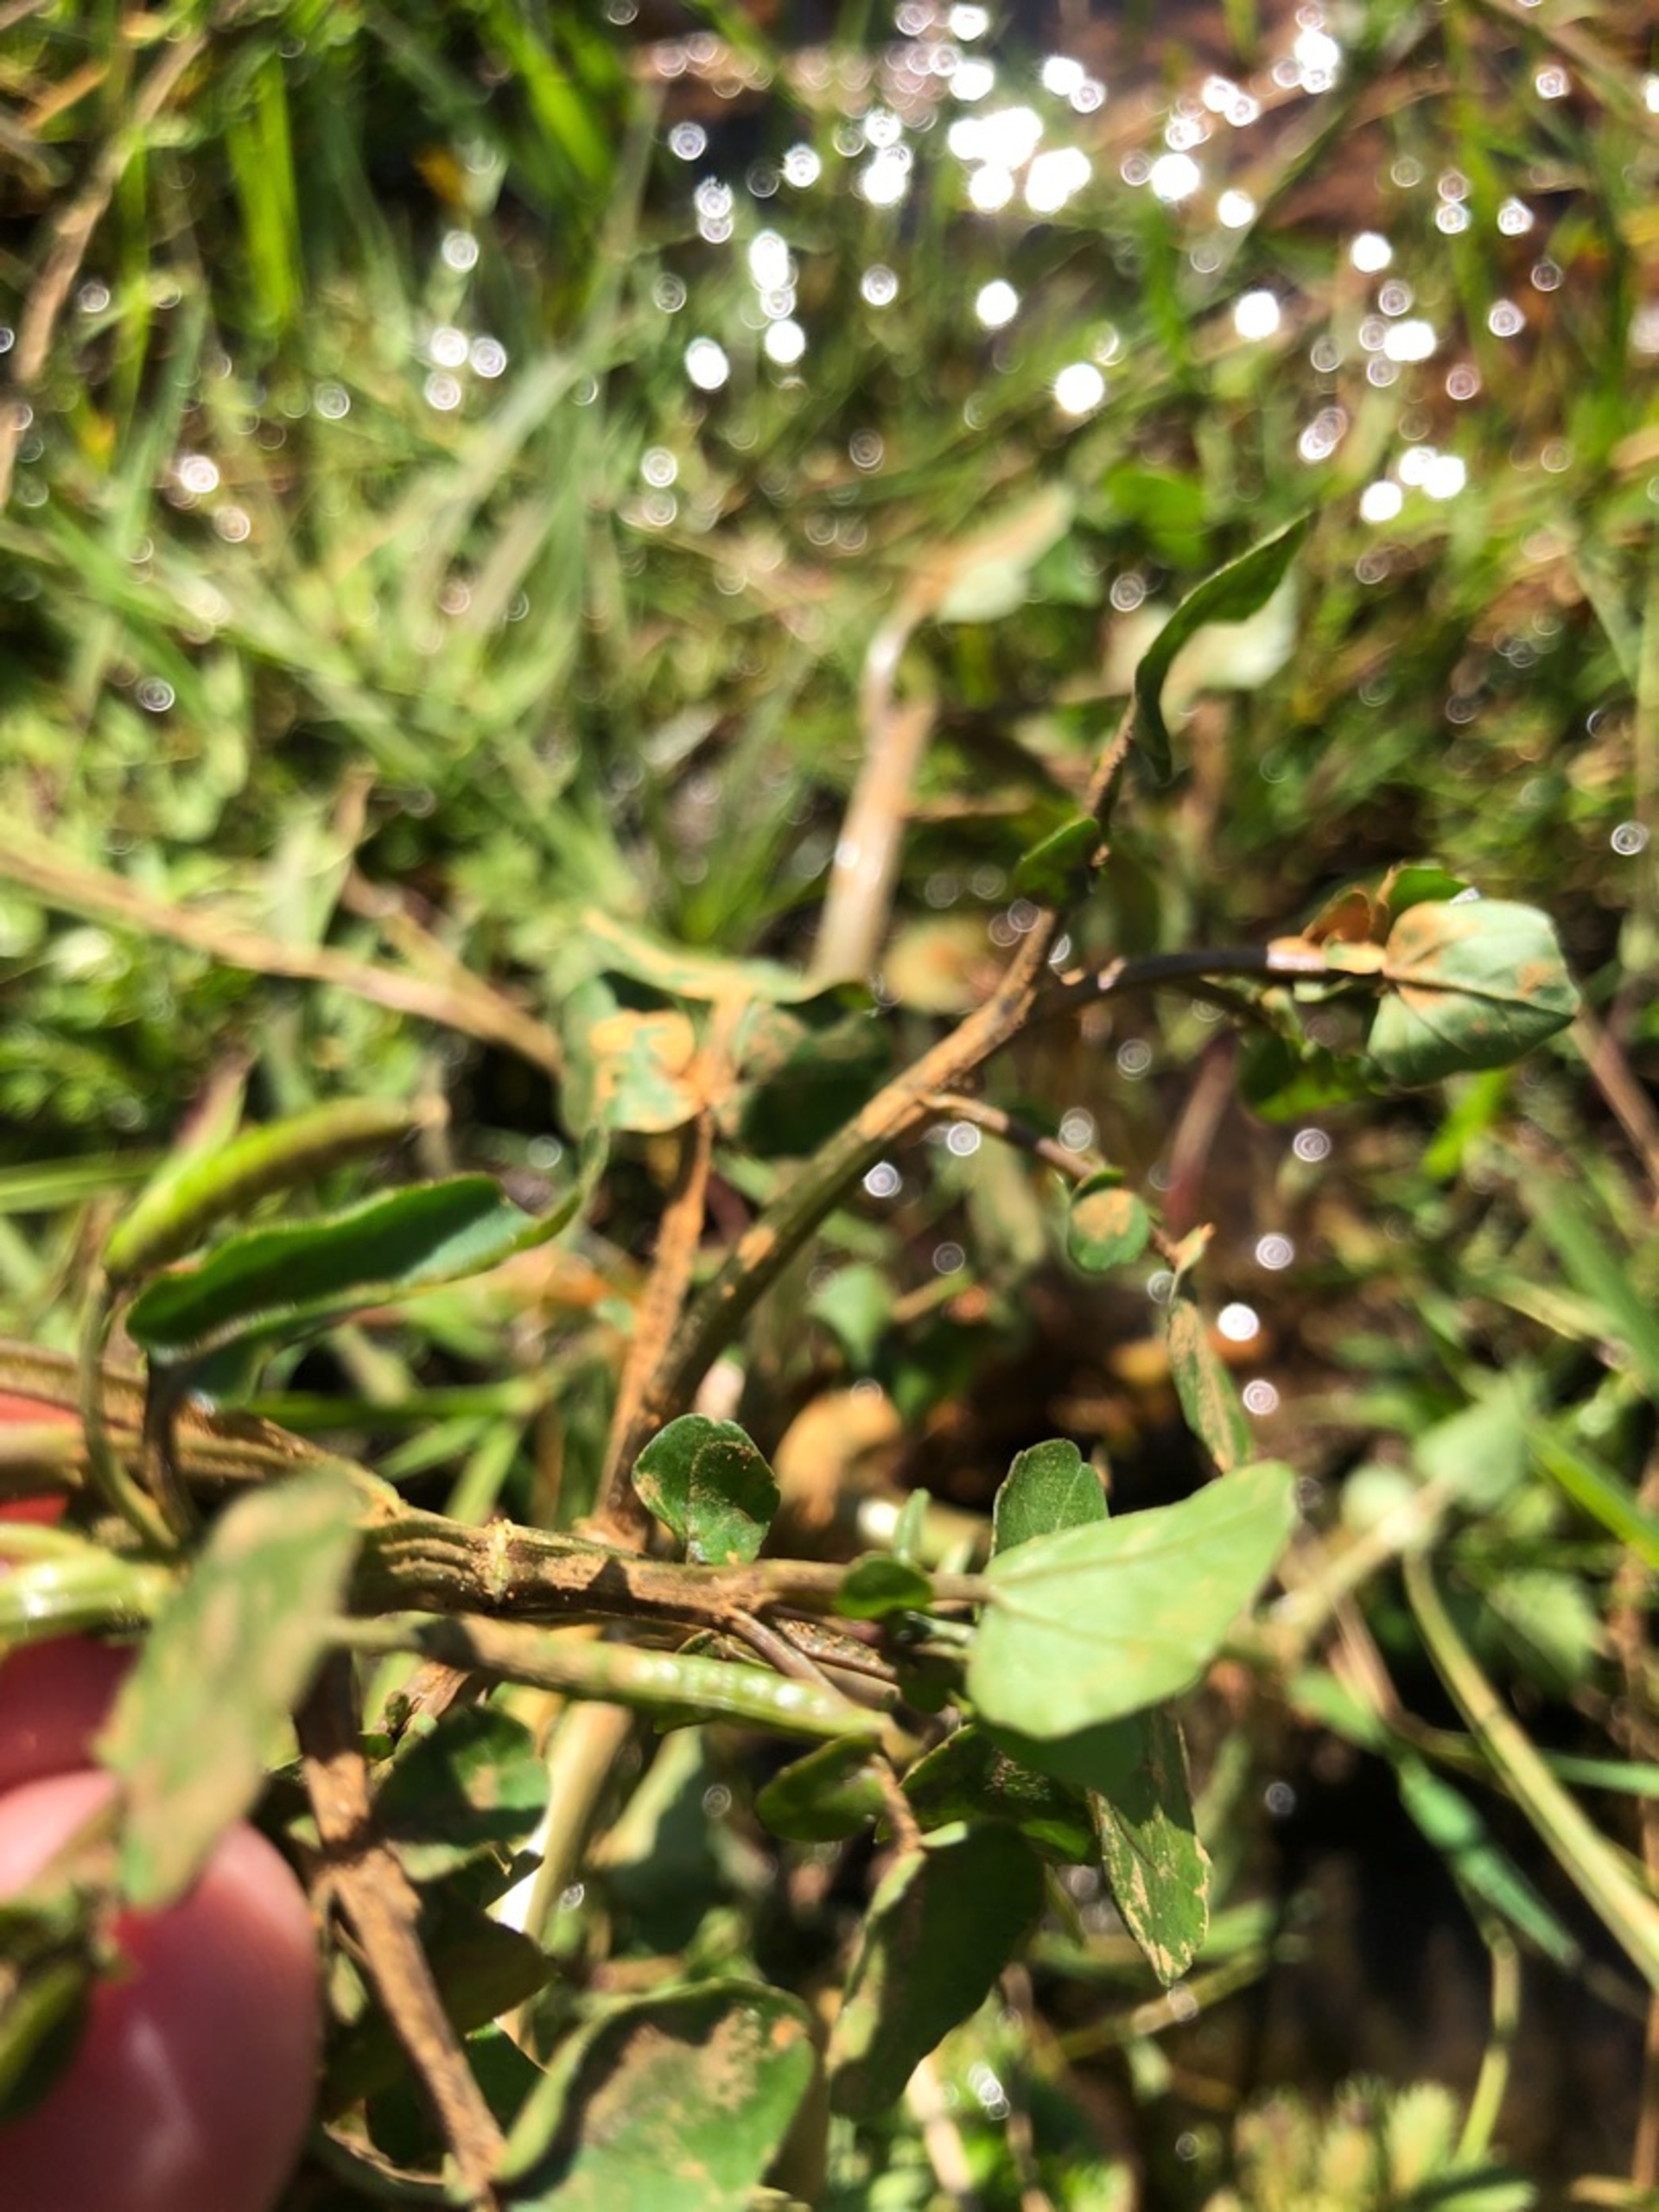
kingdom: Plantae
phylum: Tracheophyta
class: Magnoliopsida
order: Brassicales
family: Brassicaceae
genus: Nasturtium
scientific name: Nasturtium officinale
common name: Tykskulpet brøndkarse
